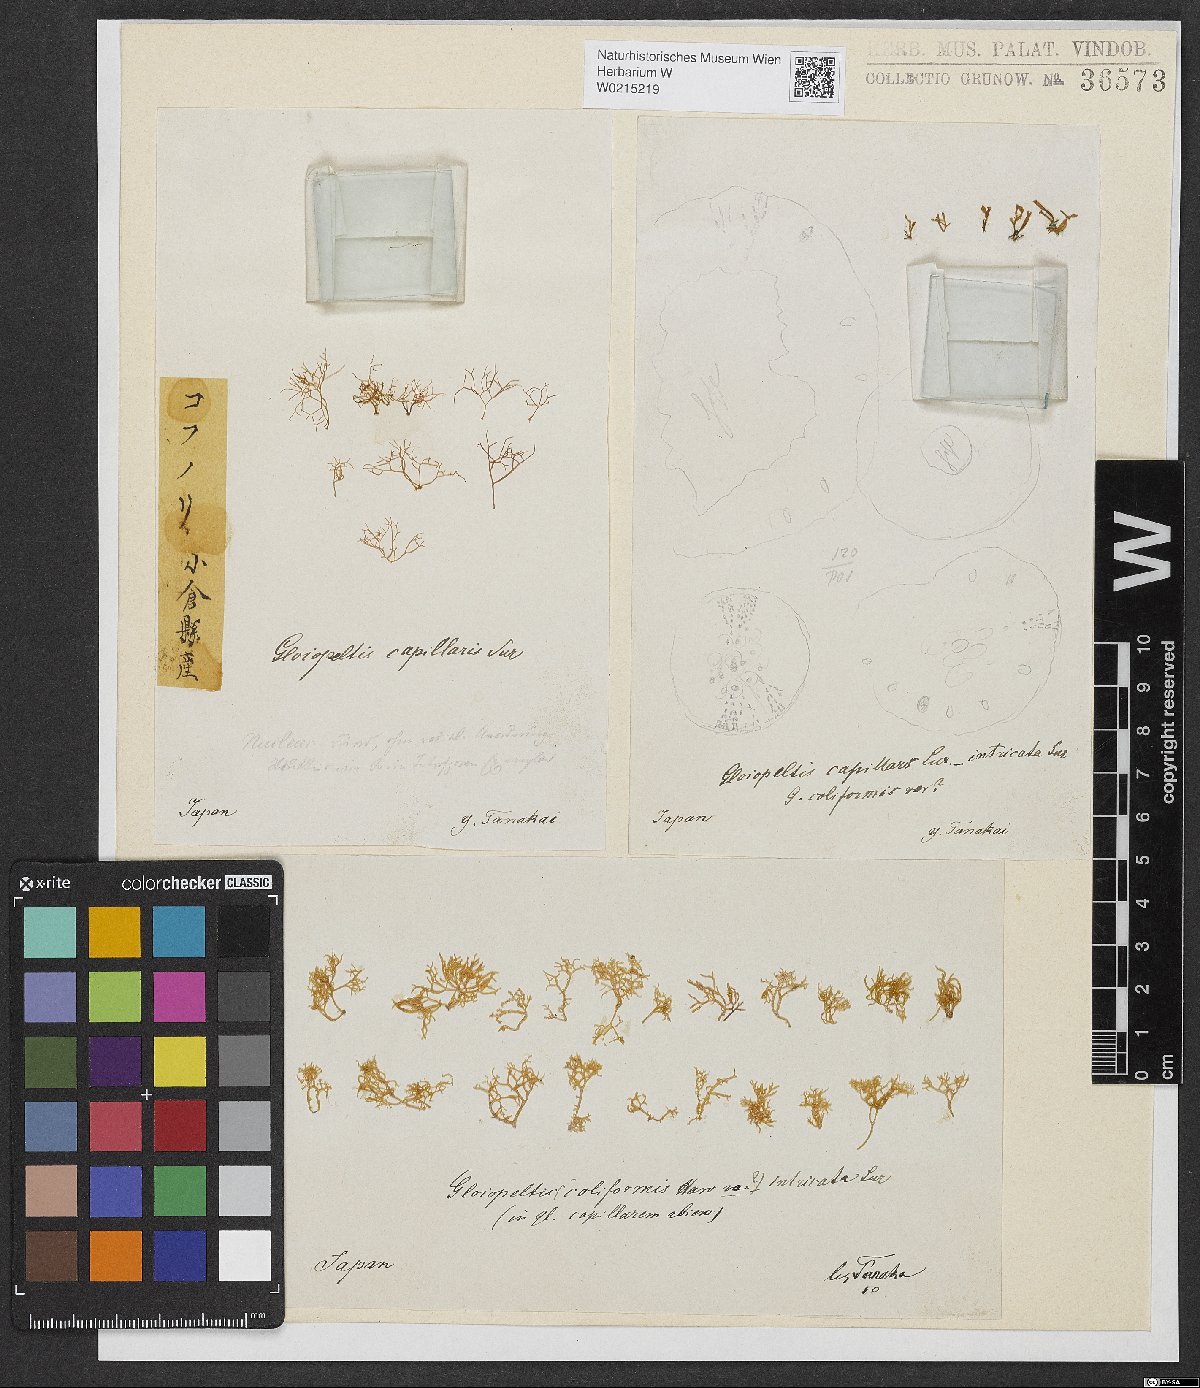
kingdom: Plantae
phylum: Rhodophyta
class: Florideophyceae
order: Gigartinales
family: Endocladiaceae
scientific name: Endocladiaceae
